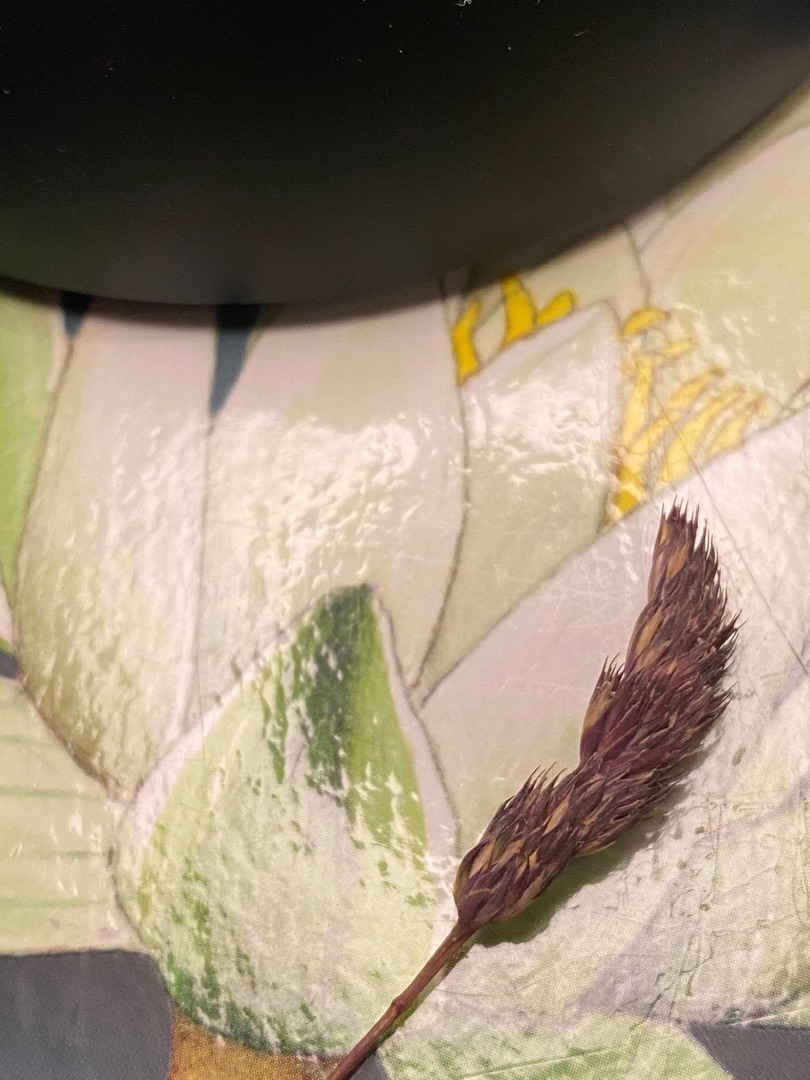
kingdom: Plantae
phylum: Tracheophyta
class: Liliopsida
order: Poales
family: Poaceae
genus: Dactylis
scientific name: Dactylis glomerata
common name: Almindelig hundegræs
